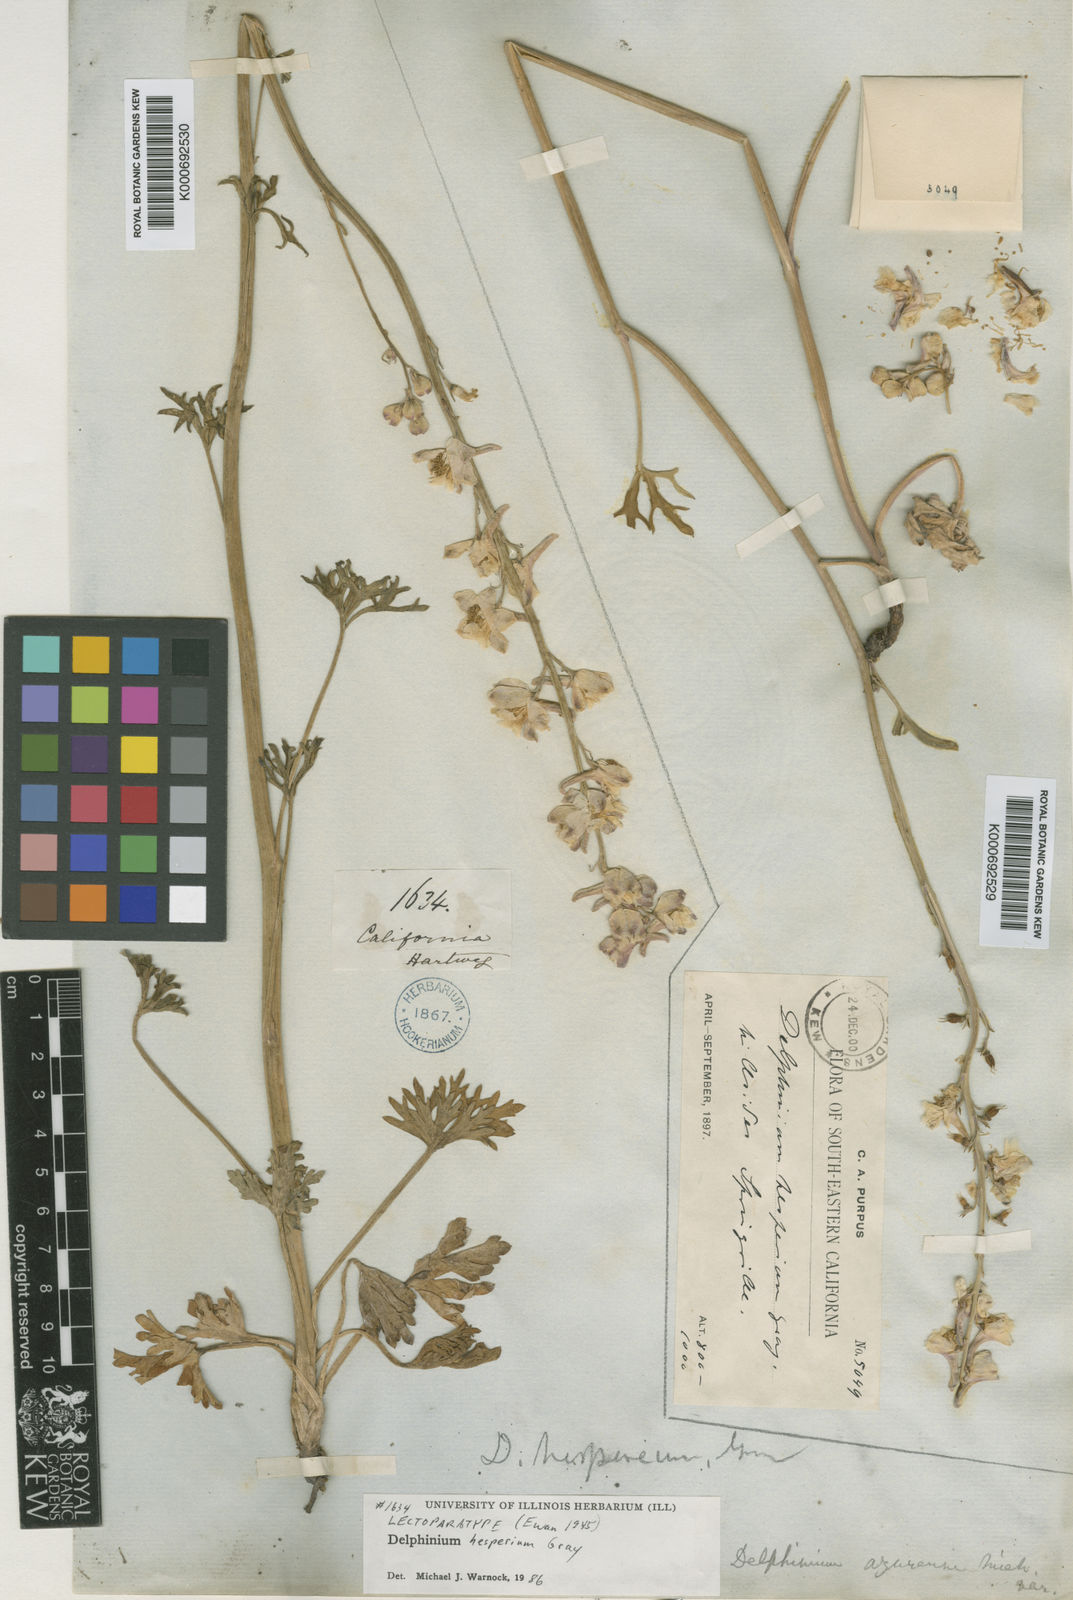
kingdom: Plantae
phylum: Tracheophyta
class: Magnoliopsida
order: Ranunculales
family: Ranunculaceae
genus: Delphinium
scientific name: Delphinium hesperium
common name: Western larkspur
